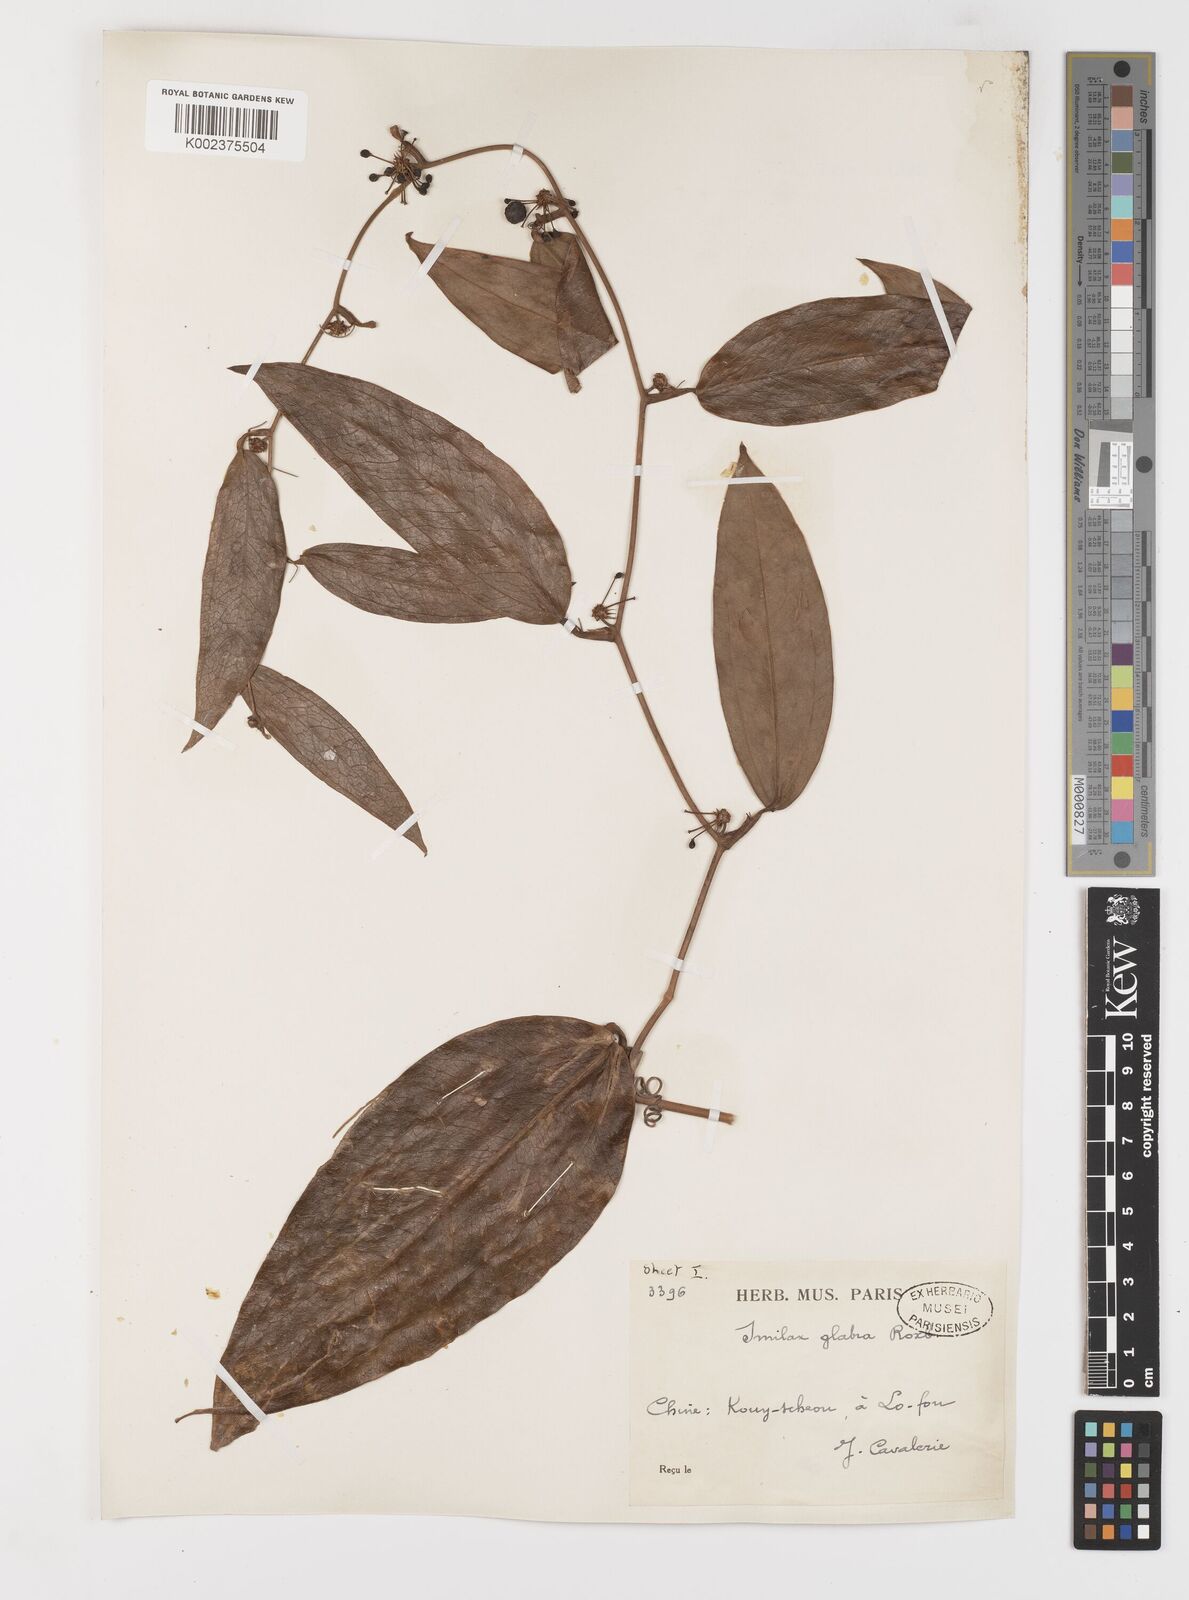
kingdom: Plantae
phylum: Tracheophyta
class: Liliopsida
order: Liliales
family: Smilacaceae
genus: Smilax
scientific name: Smilax glabra
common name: Chinese smilax
